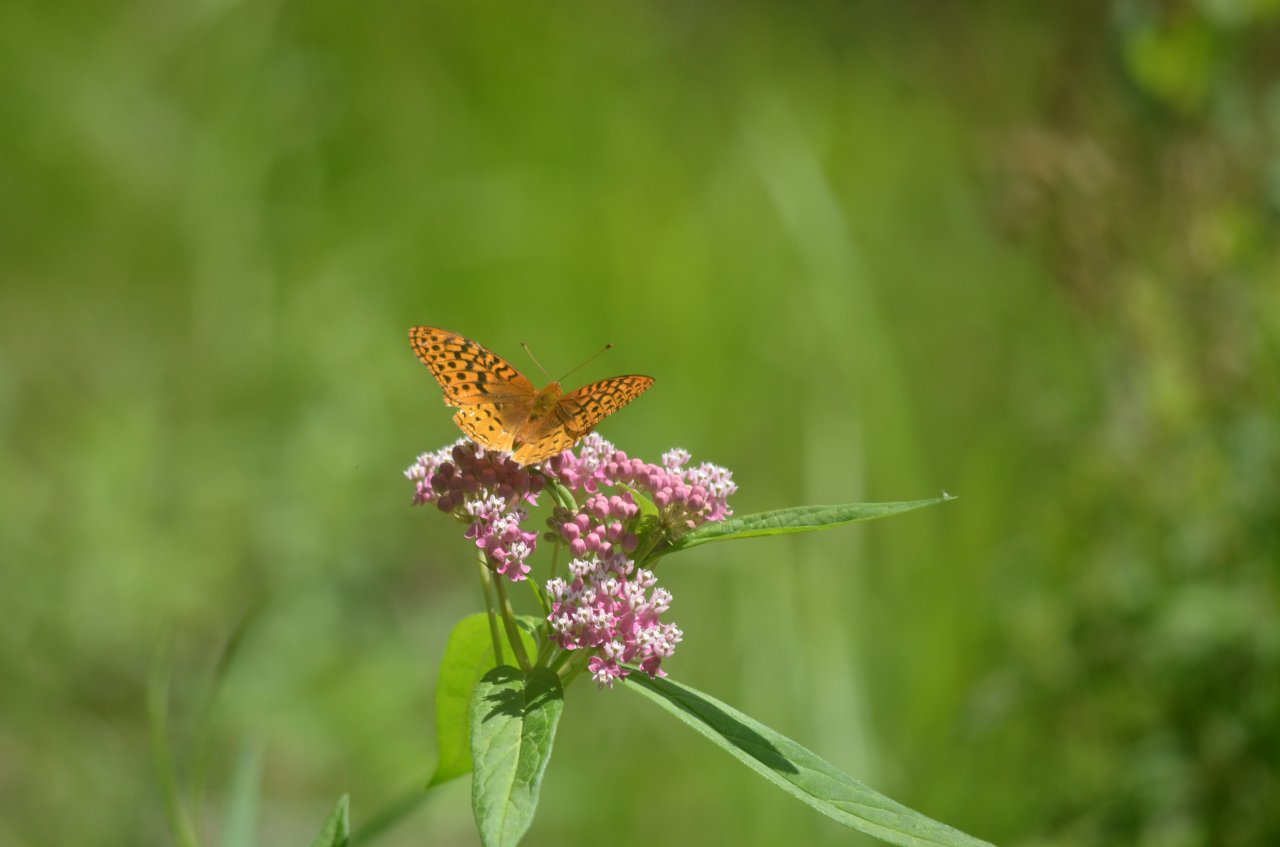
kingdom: Animalia
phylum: Arthropoda
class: Insecta
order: Lepidoptera
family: Nymphalidae
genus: Speyeria
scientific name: Speyeria cybele
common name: Great Spangled Fritillary
